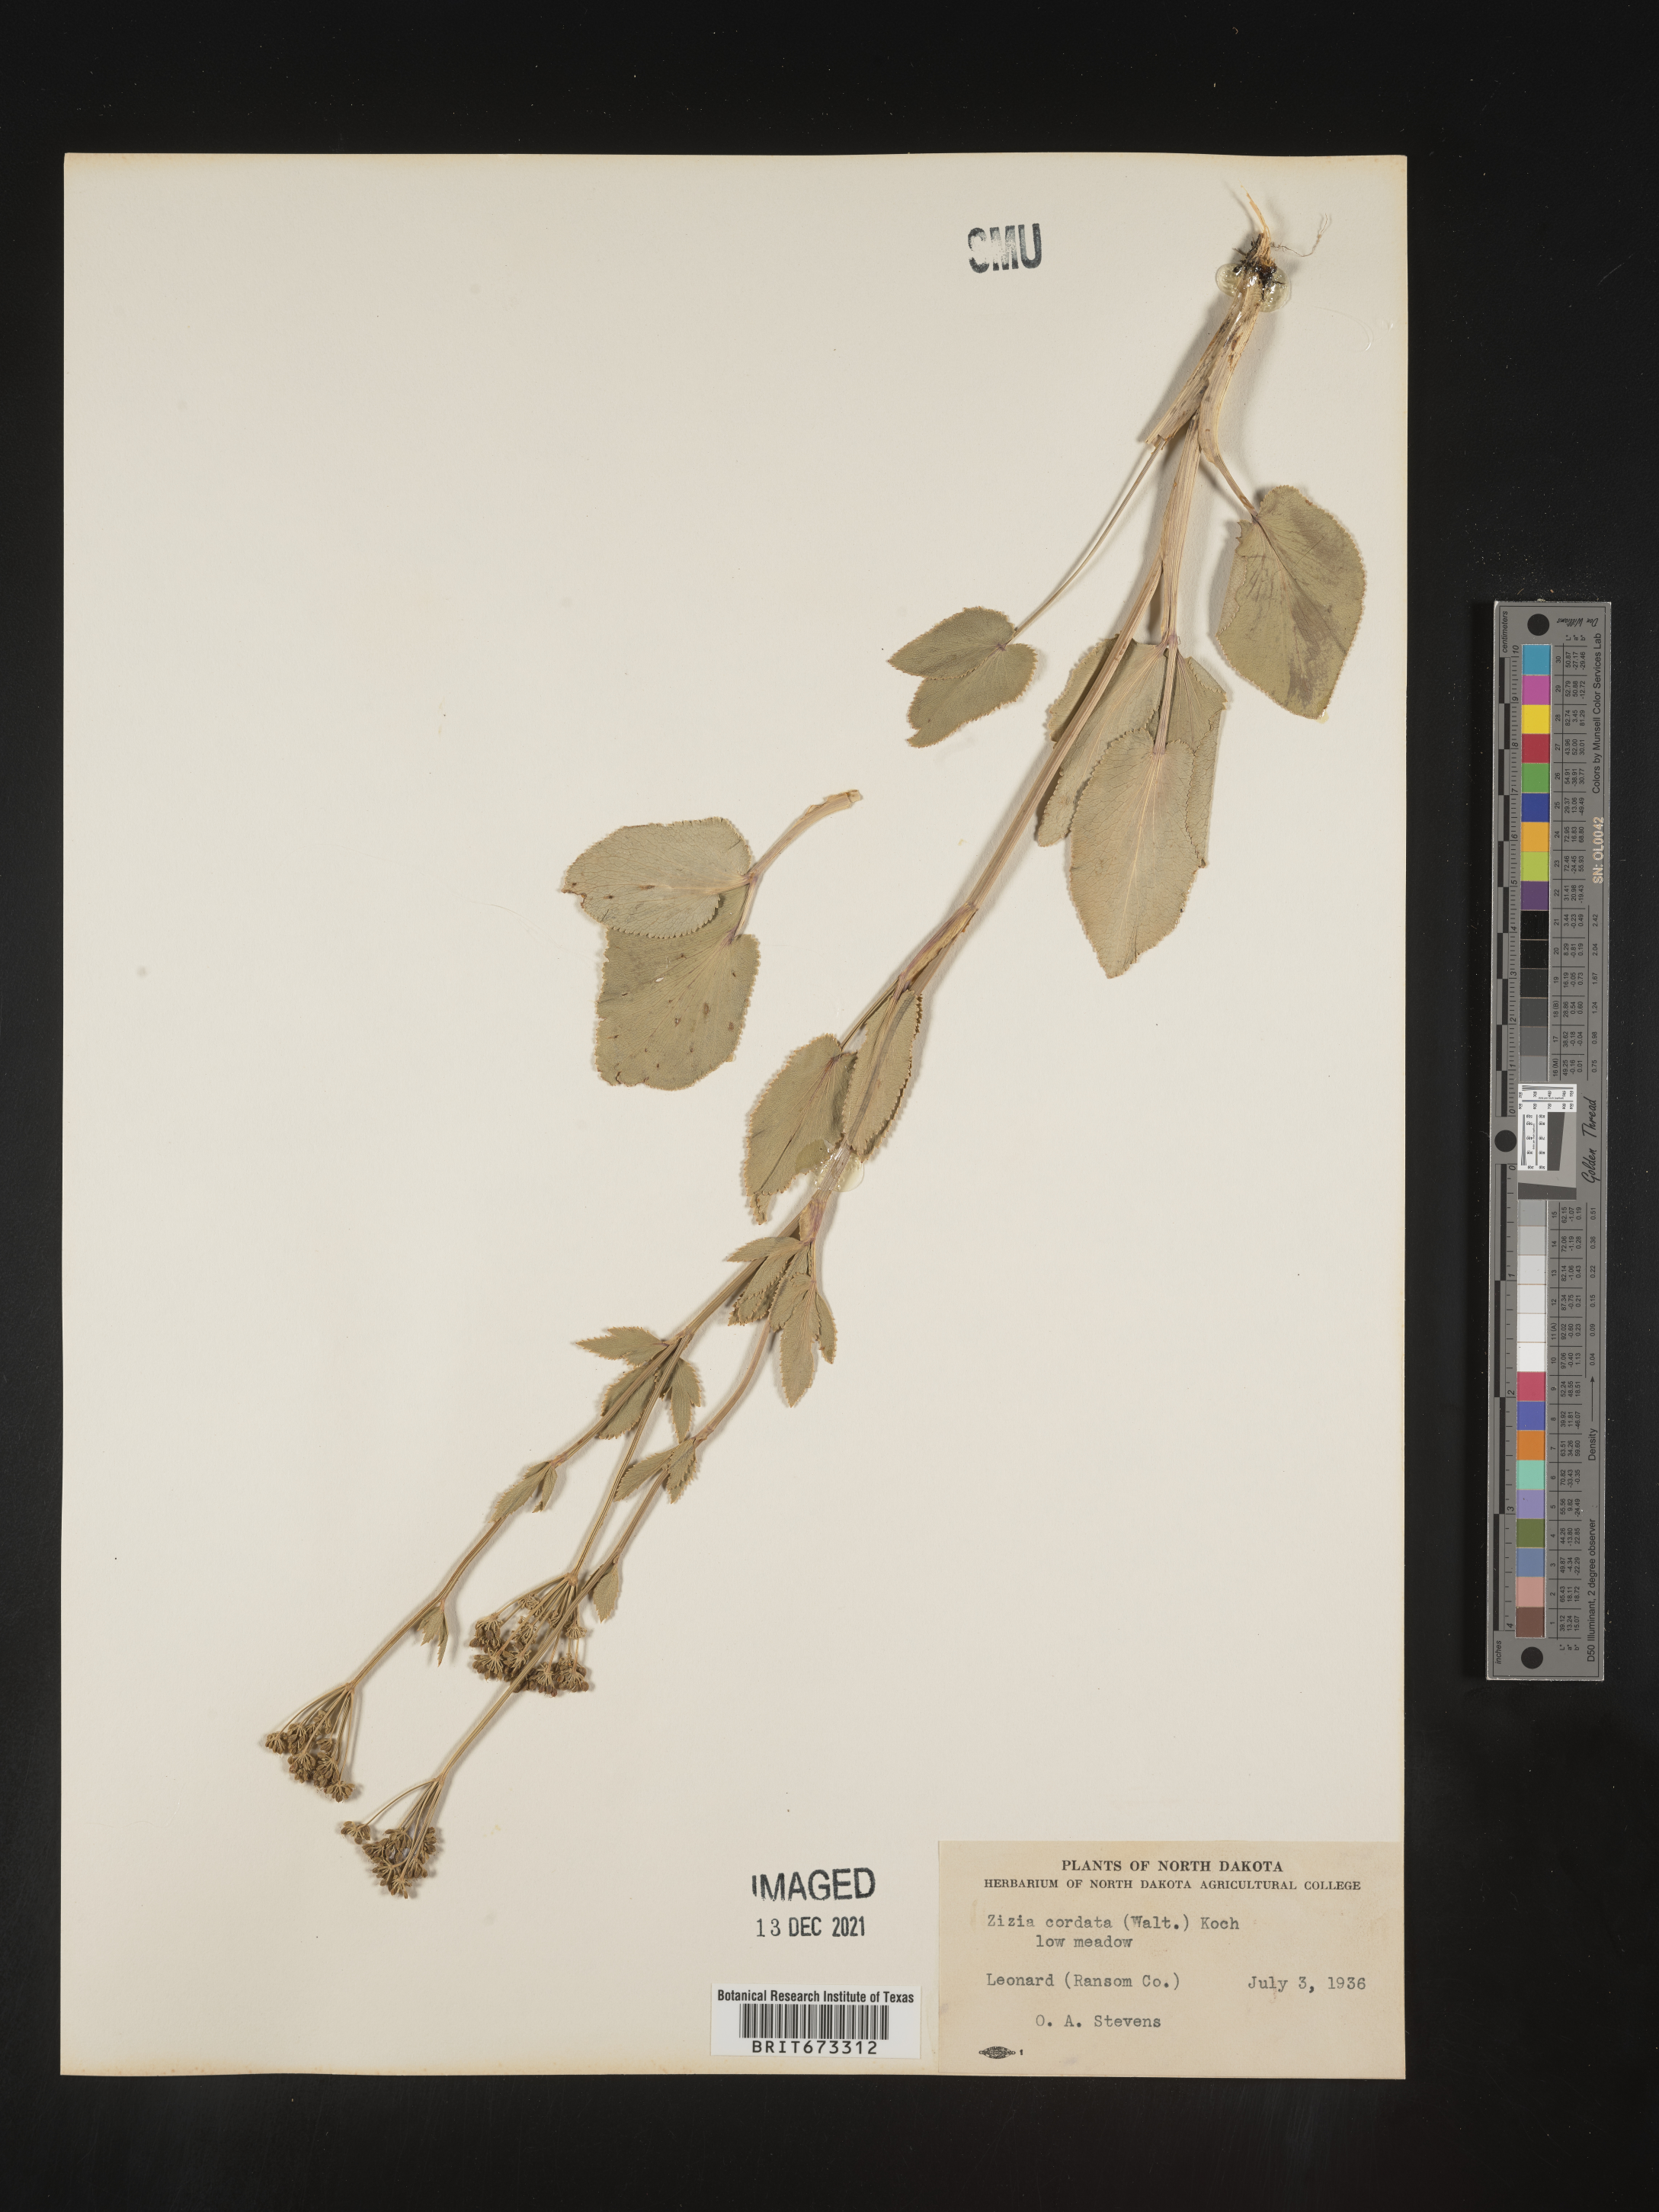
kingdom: Plantae
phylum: Tracheophyta
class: Magnoliopsida
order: Apiales
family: Apiaceae
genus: Zizia
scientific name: Zizia aptera
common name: Heart-leaved alexanders
